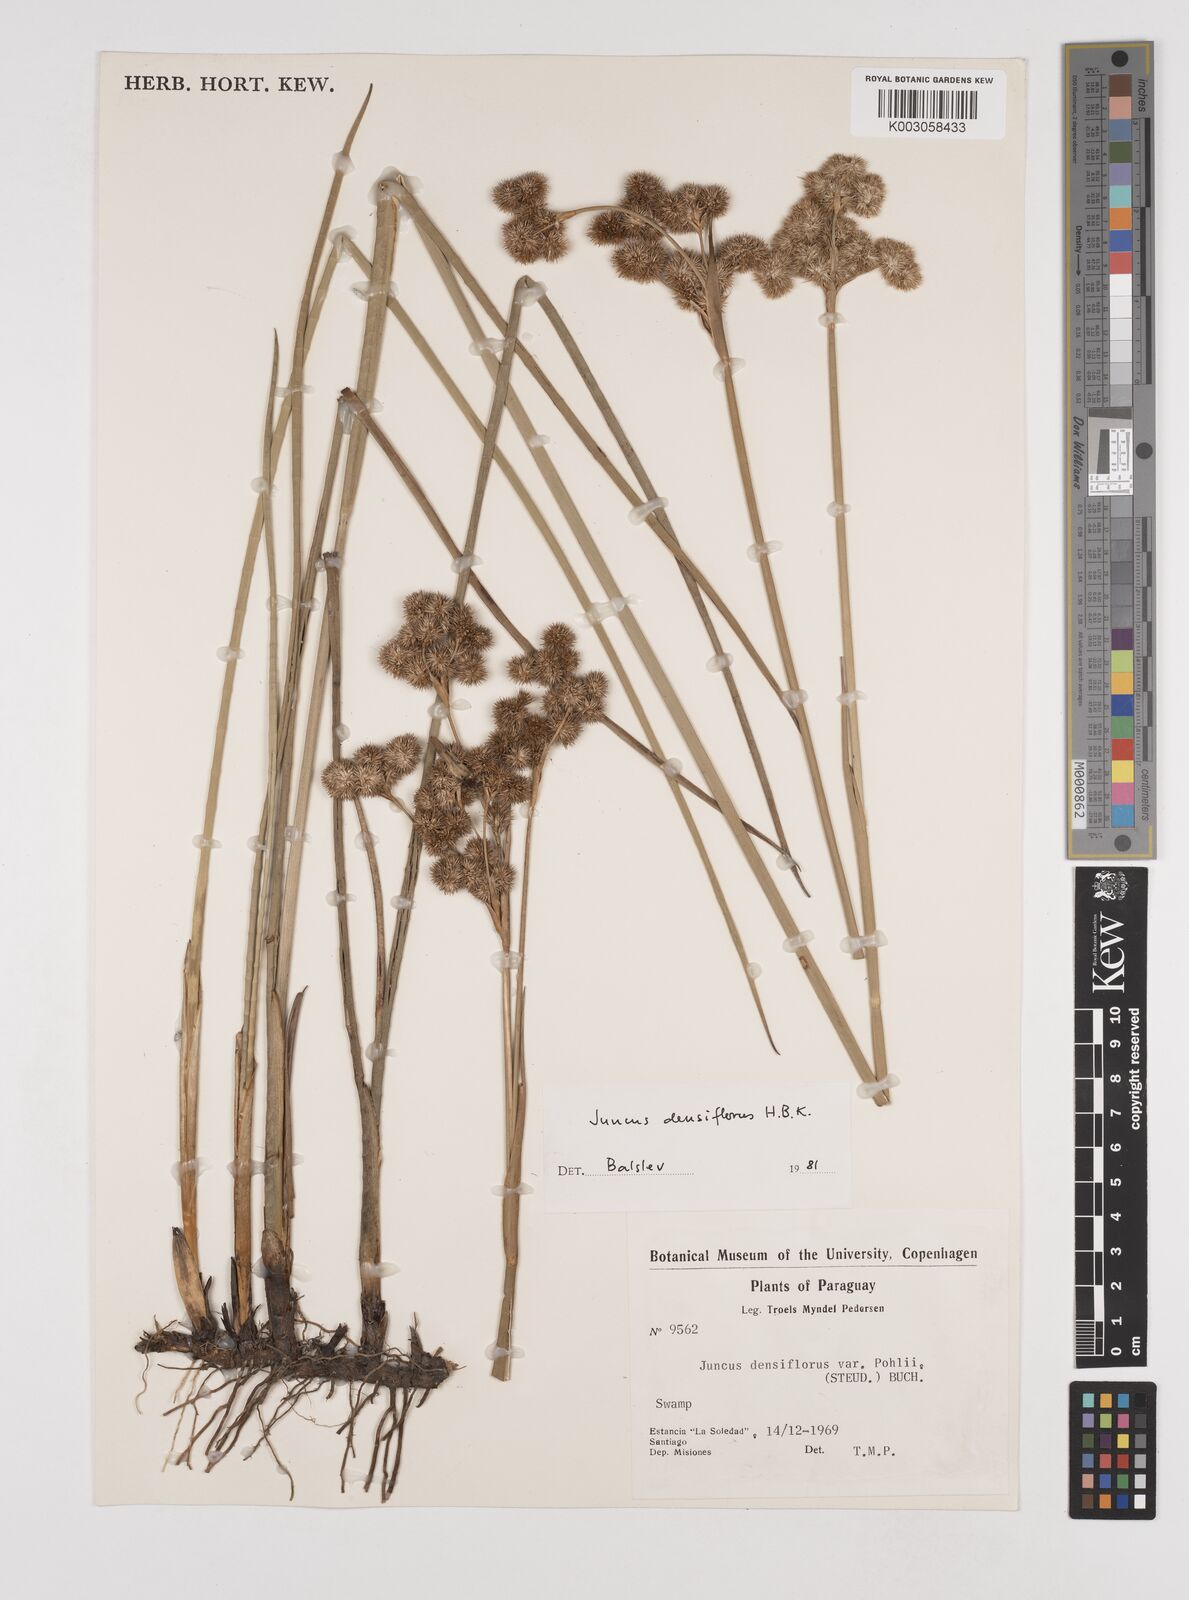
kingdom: Plantae
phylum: Tracheophyta
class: Liliopsida
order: Poales
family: Juncaceae
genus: Juncus
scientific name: Juncus densiflorus
